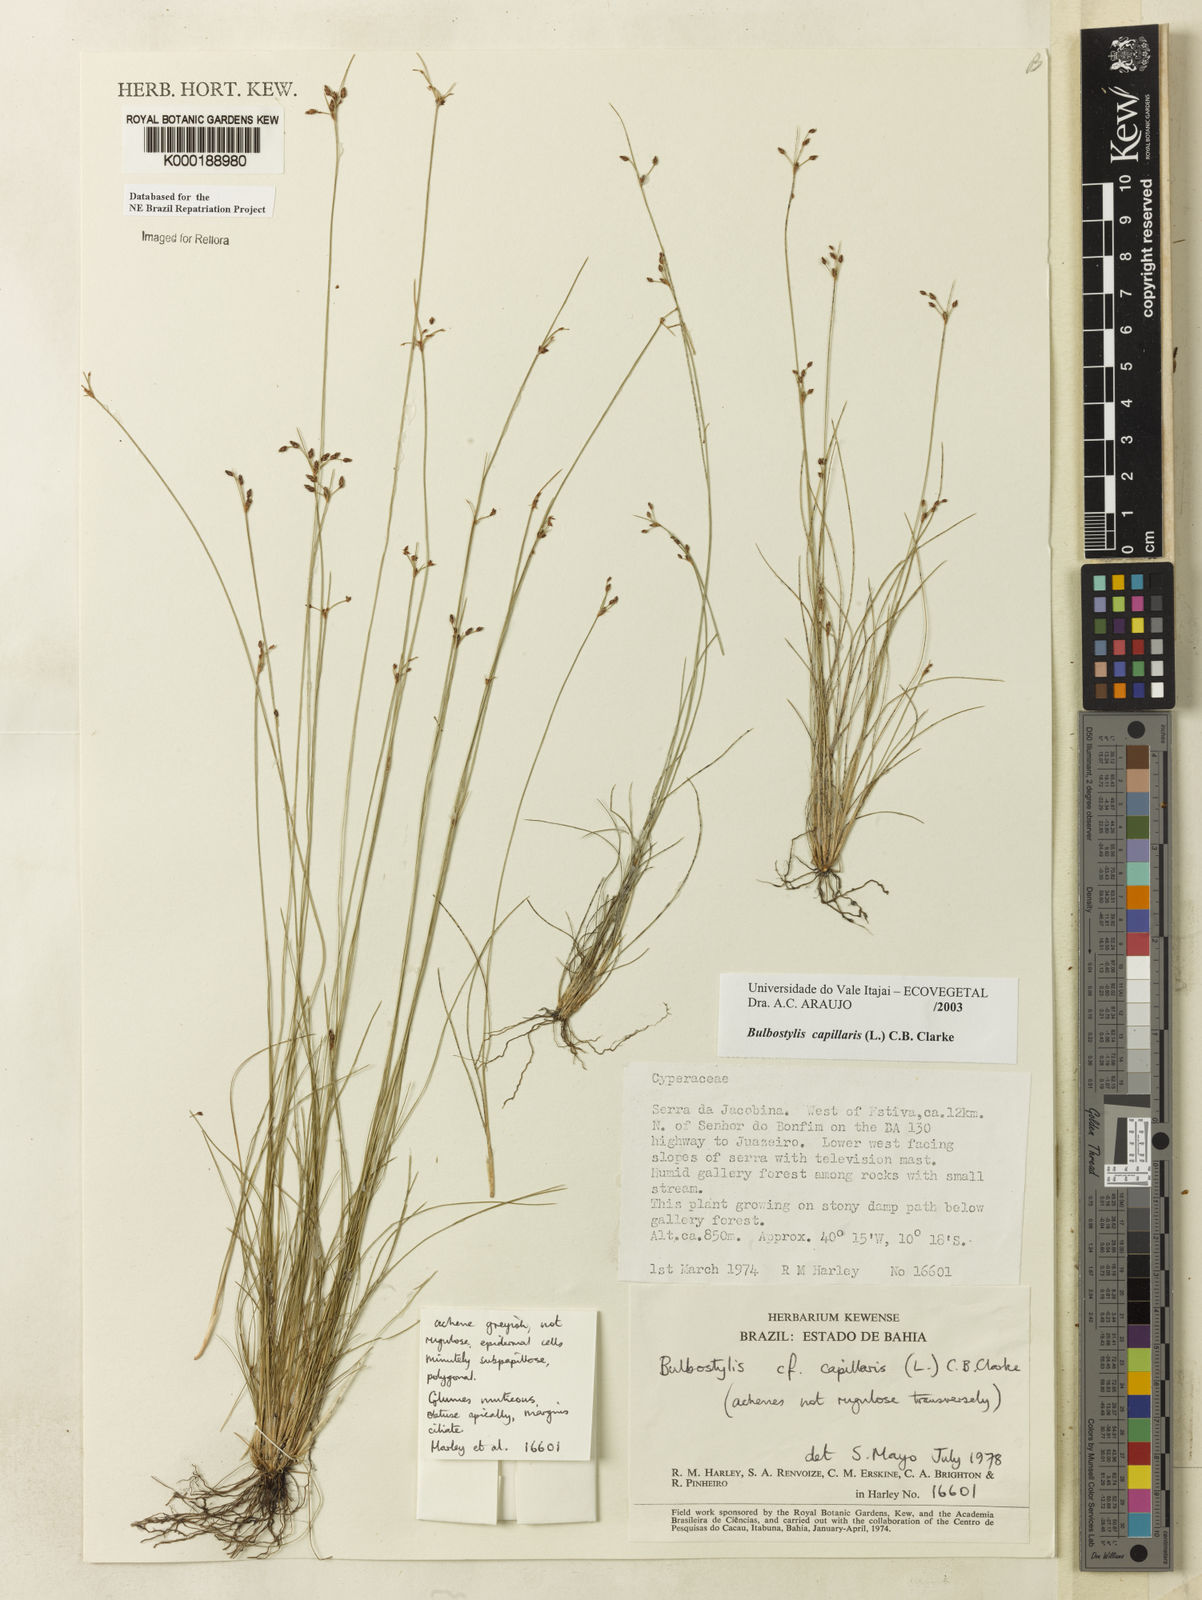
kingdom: Plantae
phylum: Tracheophyta
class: Liliopsida
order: Poales
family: Cyperaceae
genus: Bulbostylis
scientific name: Bulbostylis capillaris
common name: Densetuft hairsedge
